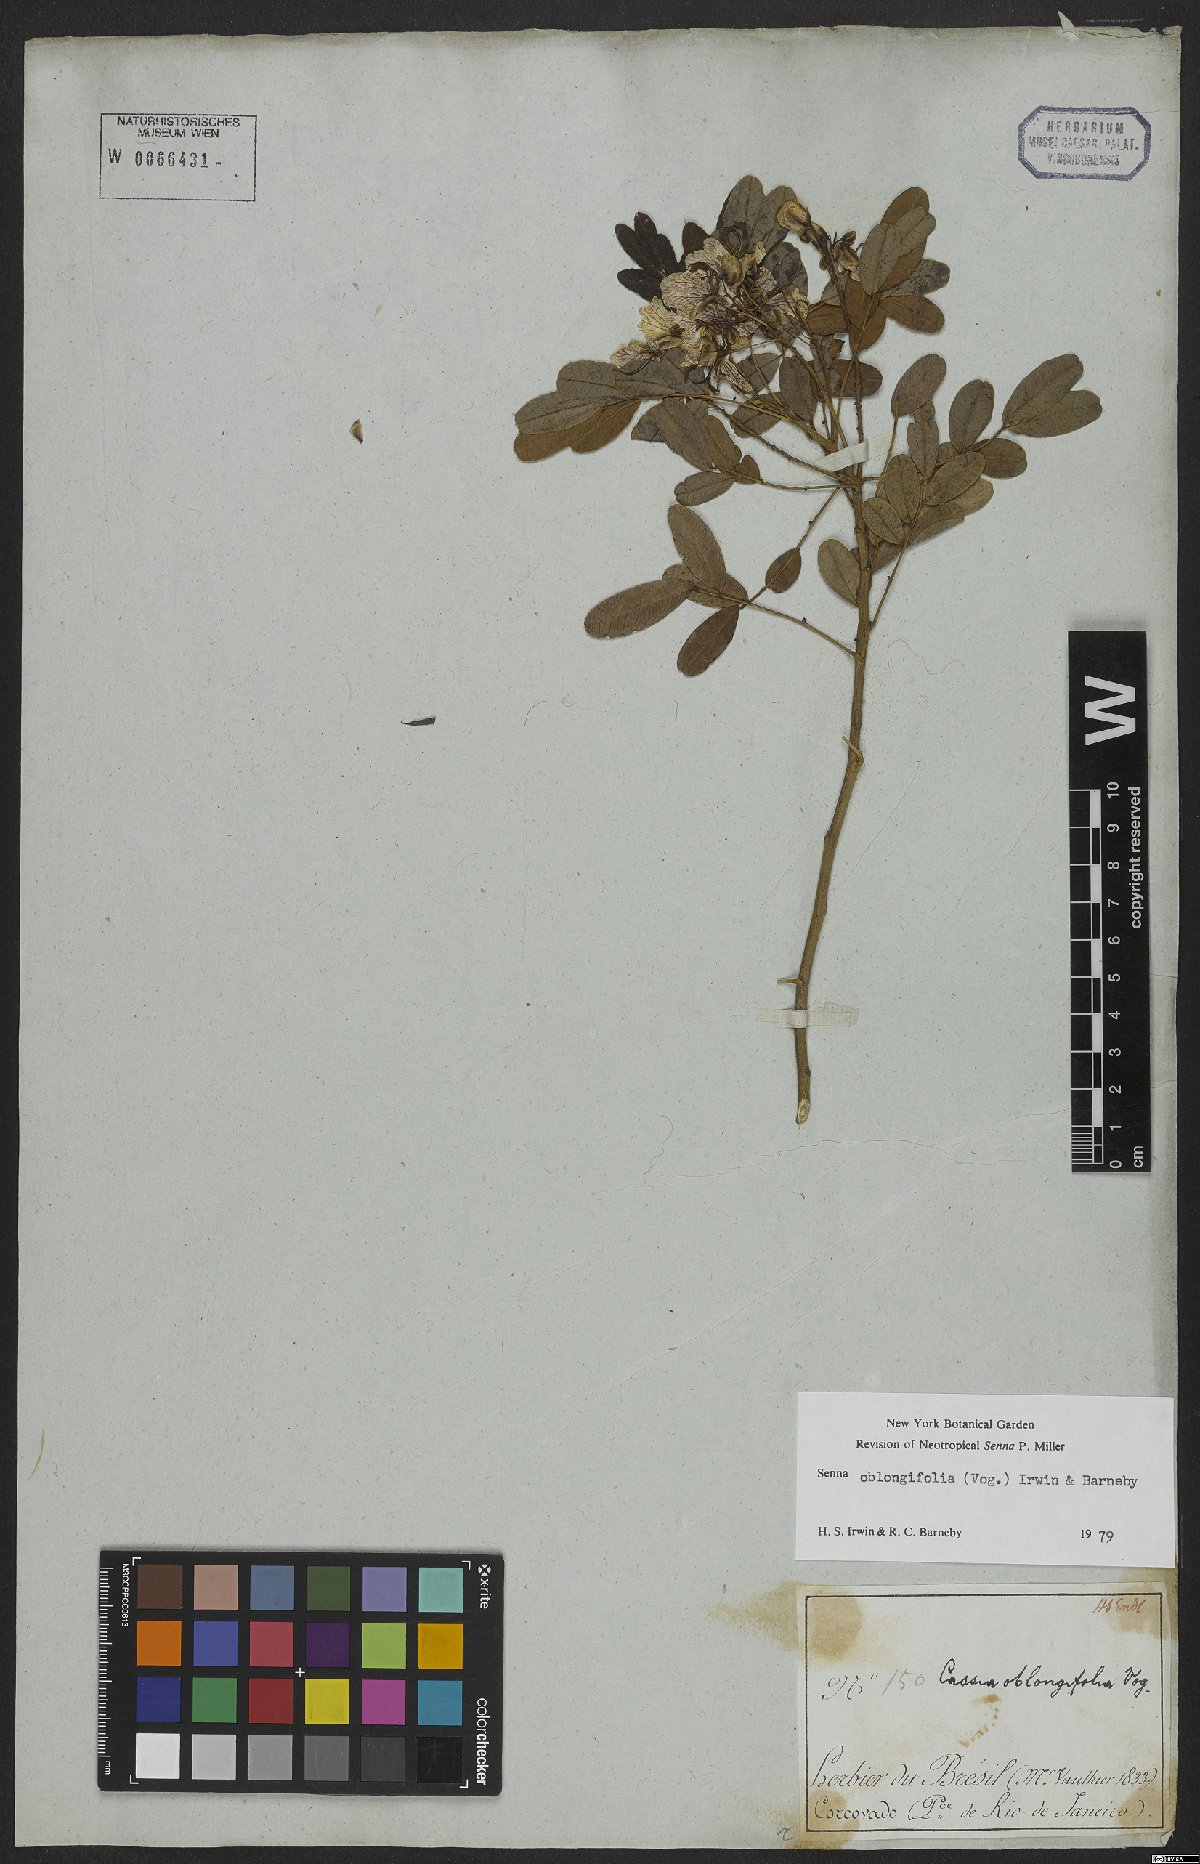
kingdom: Plantae
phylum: Tracheophyta
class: Magnoliopsida
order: Fabales
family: Fabaceae
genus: Senna
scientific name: Senna oblongifolia
